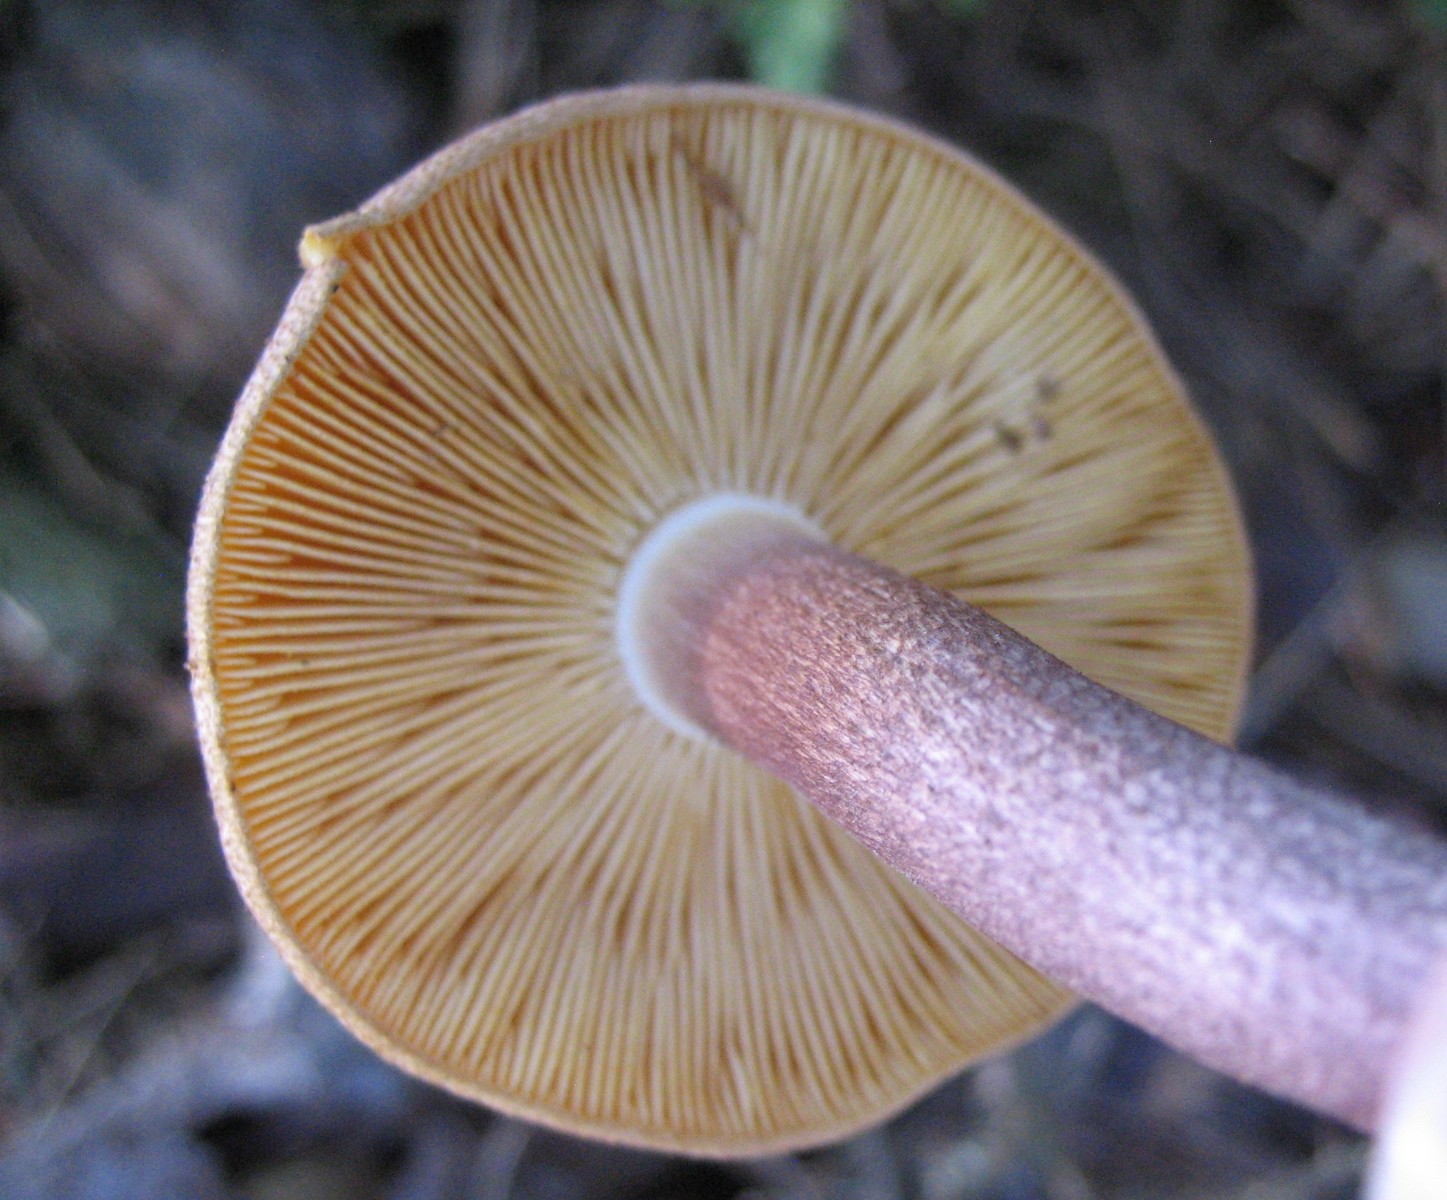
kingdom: Fungi
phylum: Basidiomycota
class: Agaricomycetes
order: Agaricales
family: Tricholomataceae
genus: Tricholomopsis
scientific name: Tricholomopsis rutilans
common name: purpur-væbnerhat
